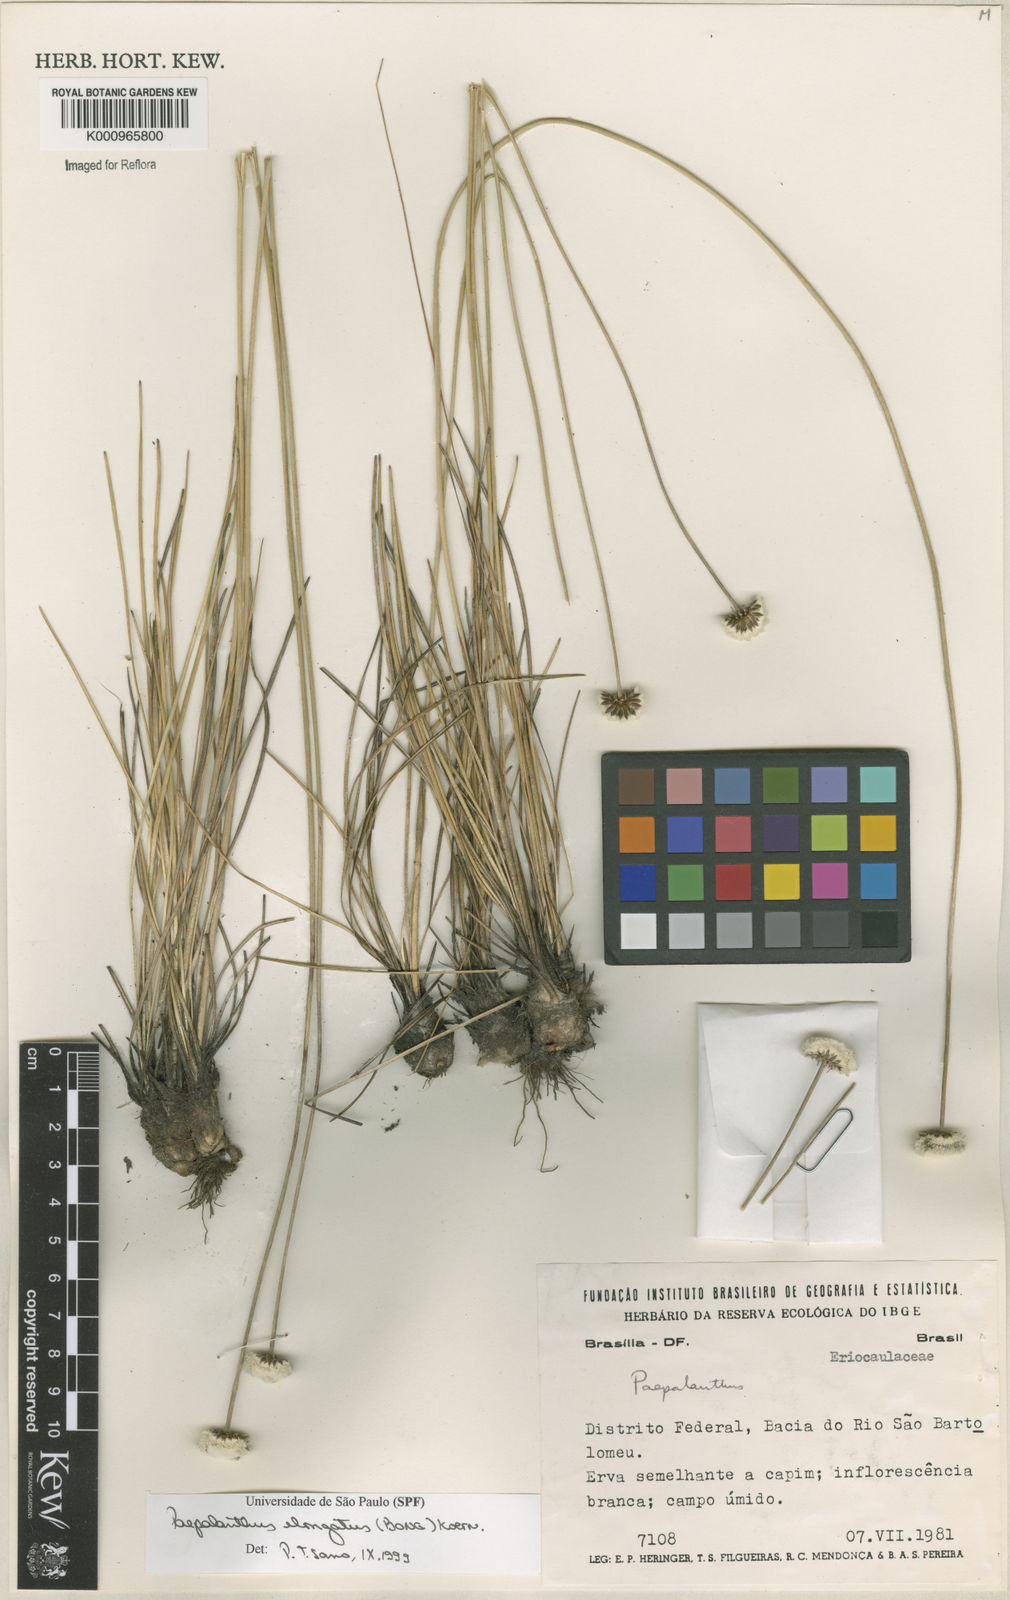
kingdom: Plantae
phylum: Tracheophyta
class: Liliopsida
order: Poales
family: Eriocaulaceae
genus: Paepalanthus
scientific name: Paepalanthus
